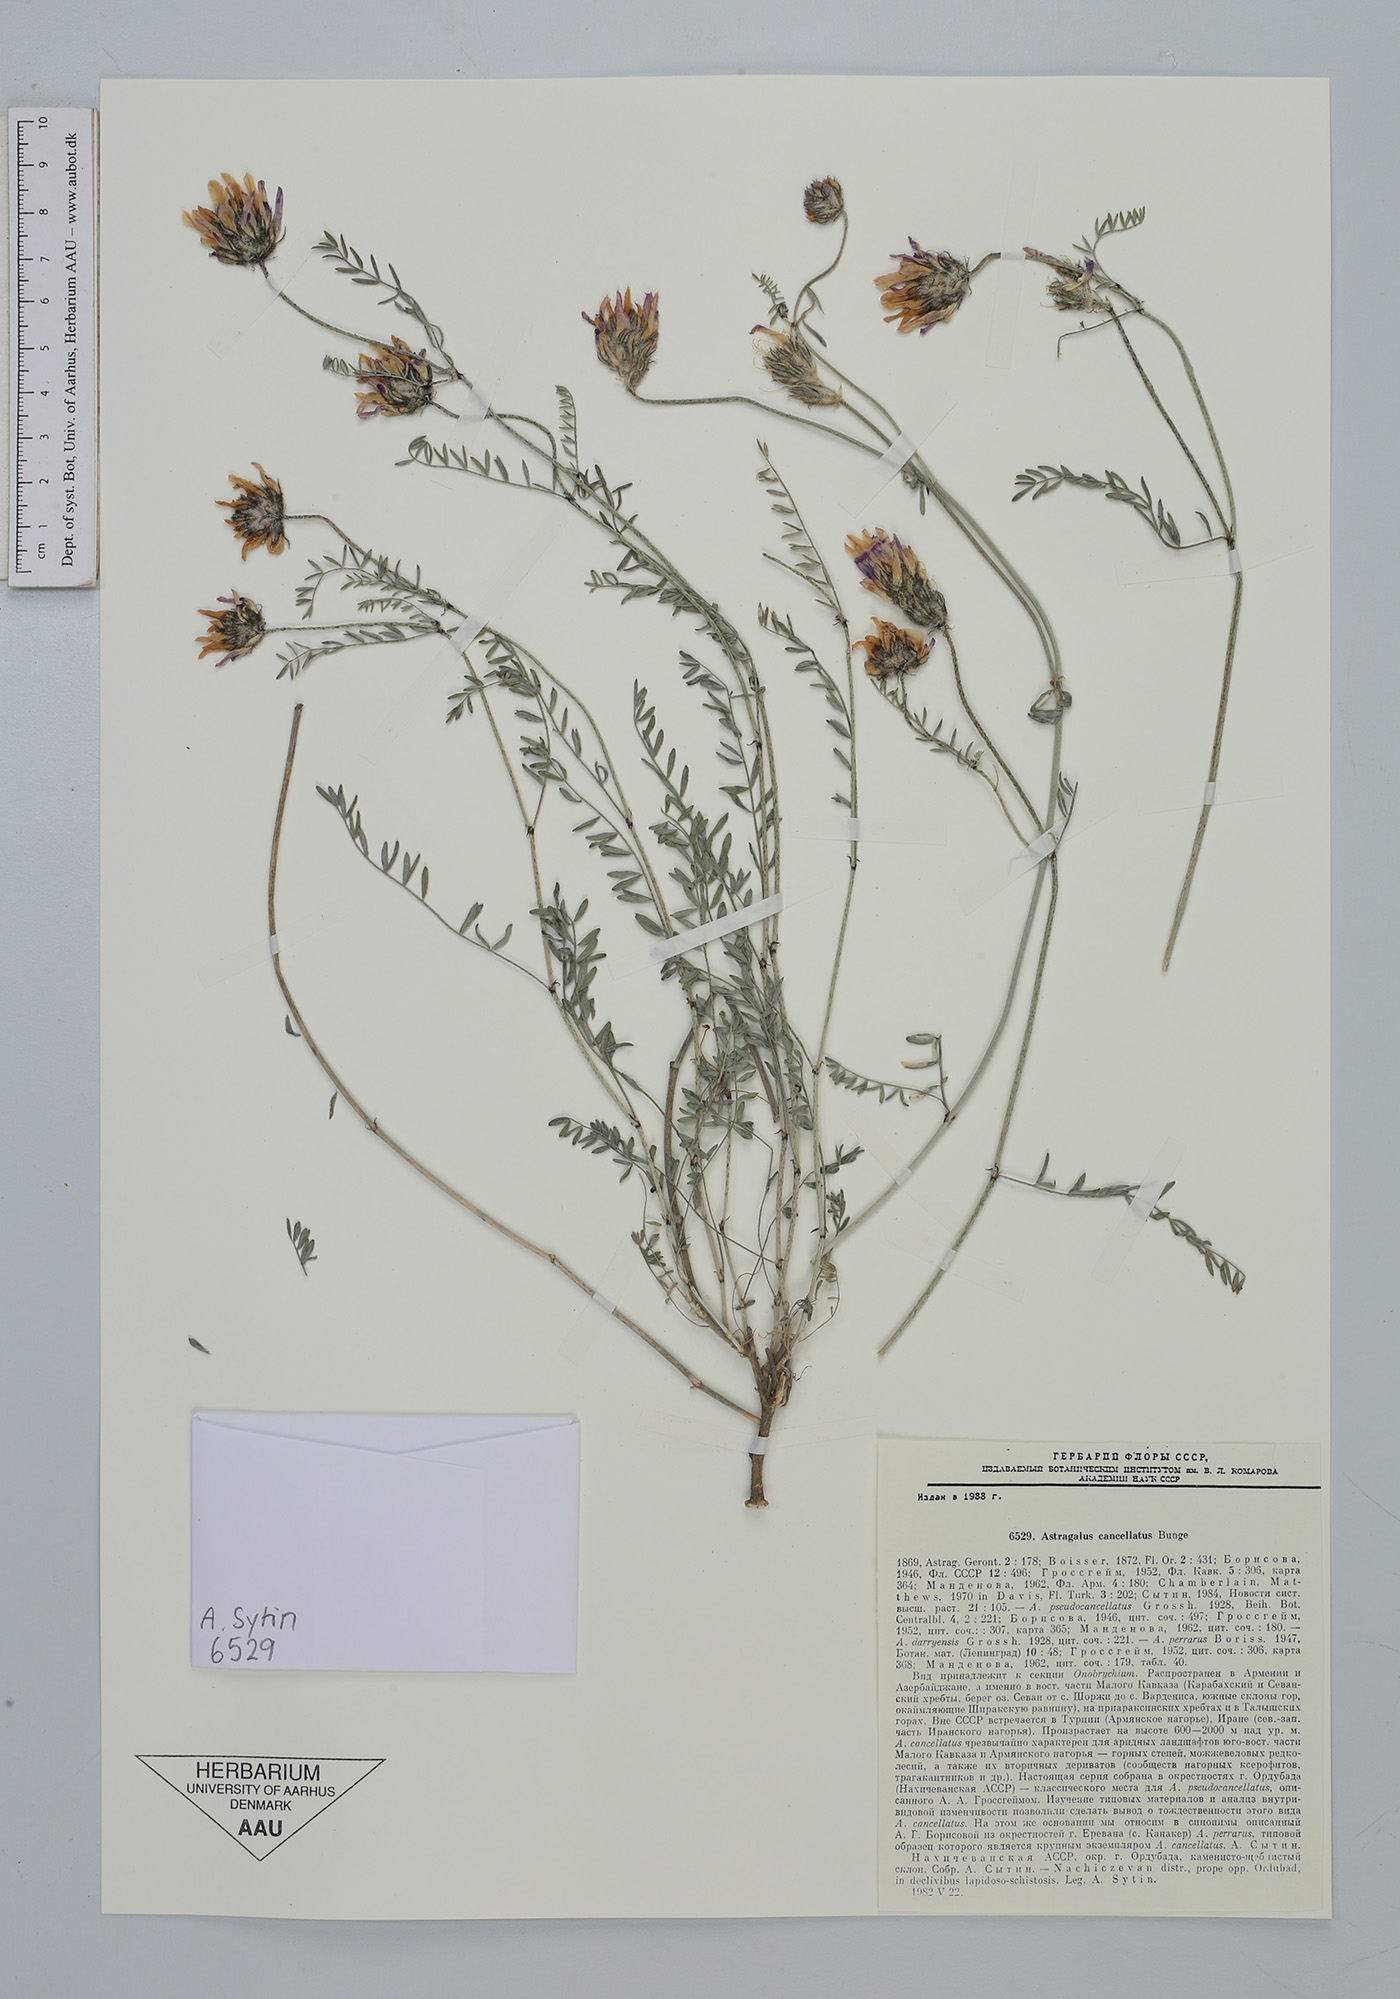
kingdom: Plantae
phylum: Tracheophyta
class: Magnoliopsida
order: Fabales
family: Fabaceae
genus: Astragalus
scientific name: Astragalus cancellatus
